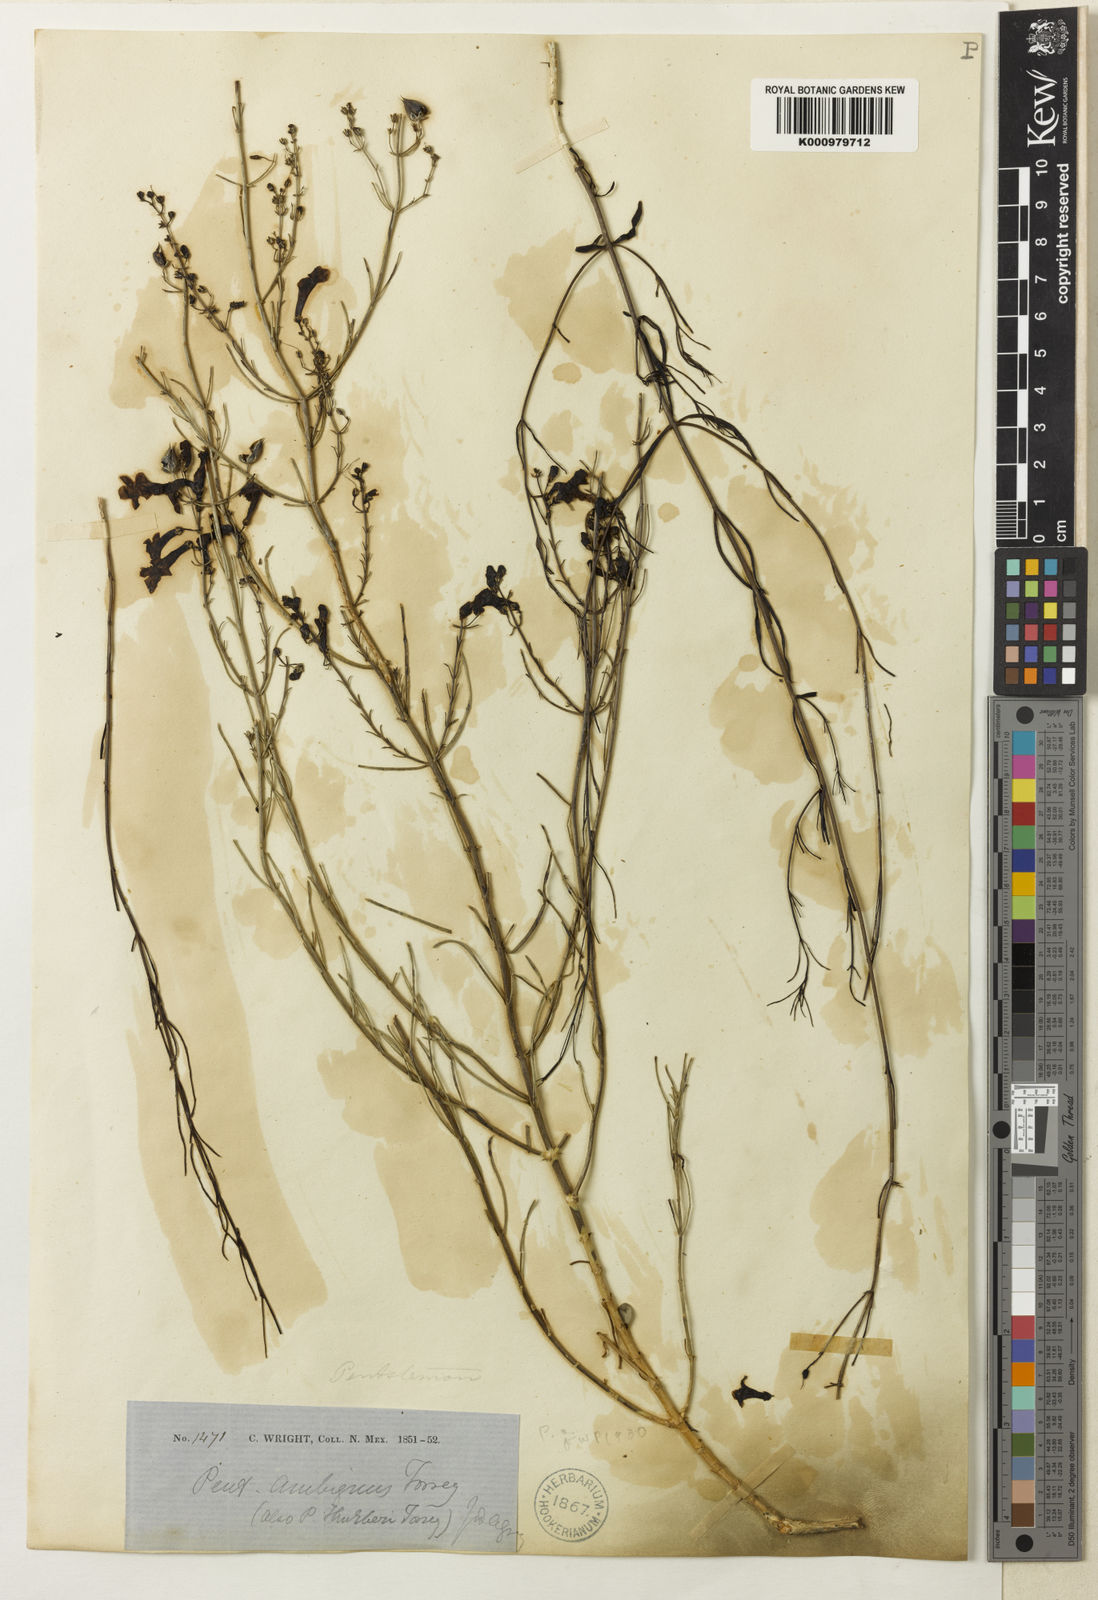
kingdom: Plantae
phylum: Tracheophyta
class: Magnoliopsida
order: Lamiales
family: Plantaginaceae
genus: Penstemon
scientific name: Penstemon ambiguus
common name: Bush penstemon
